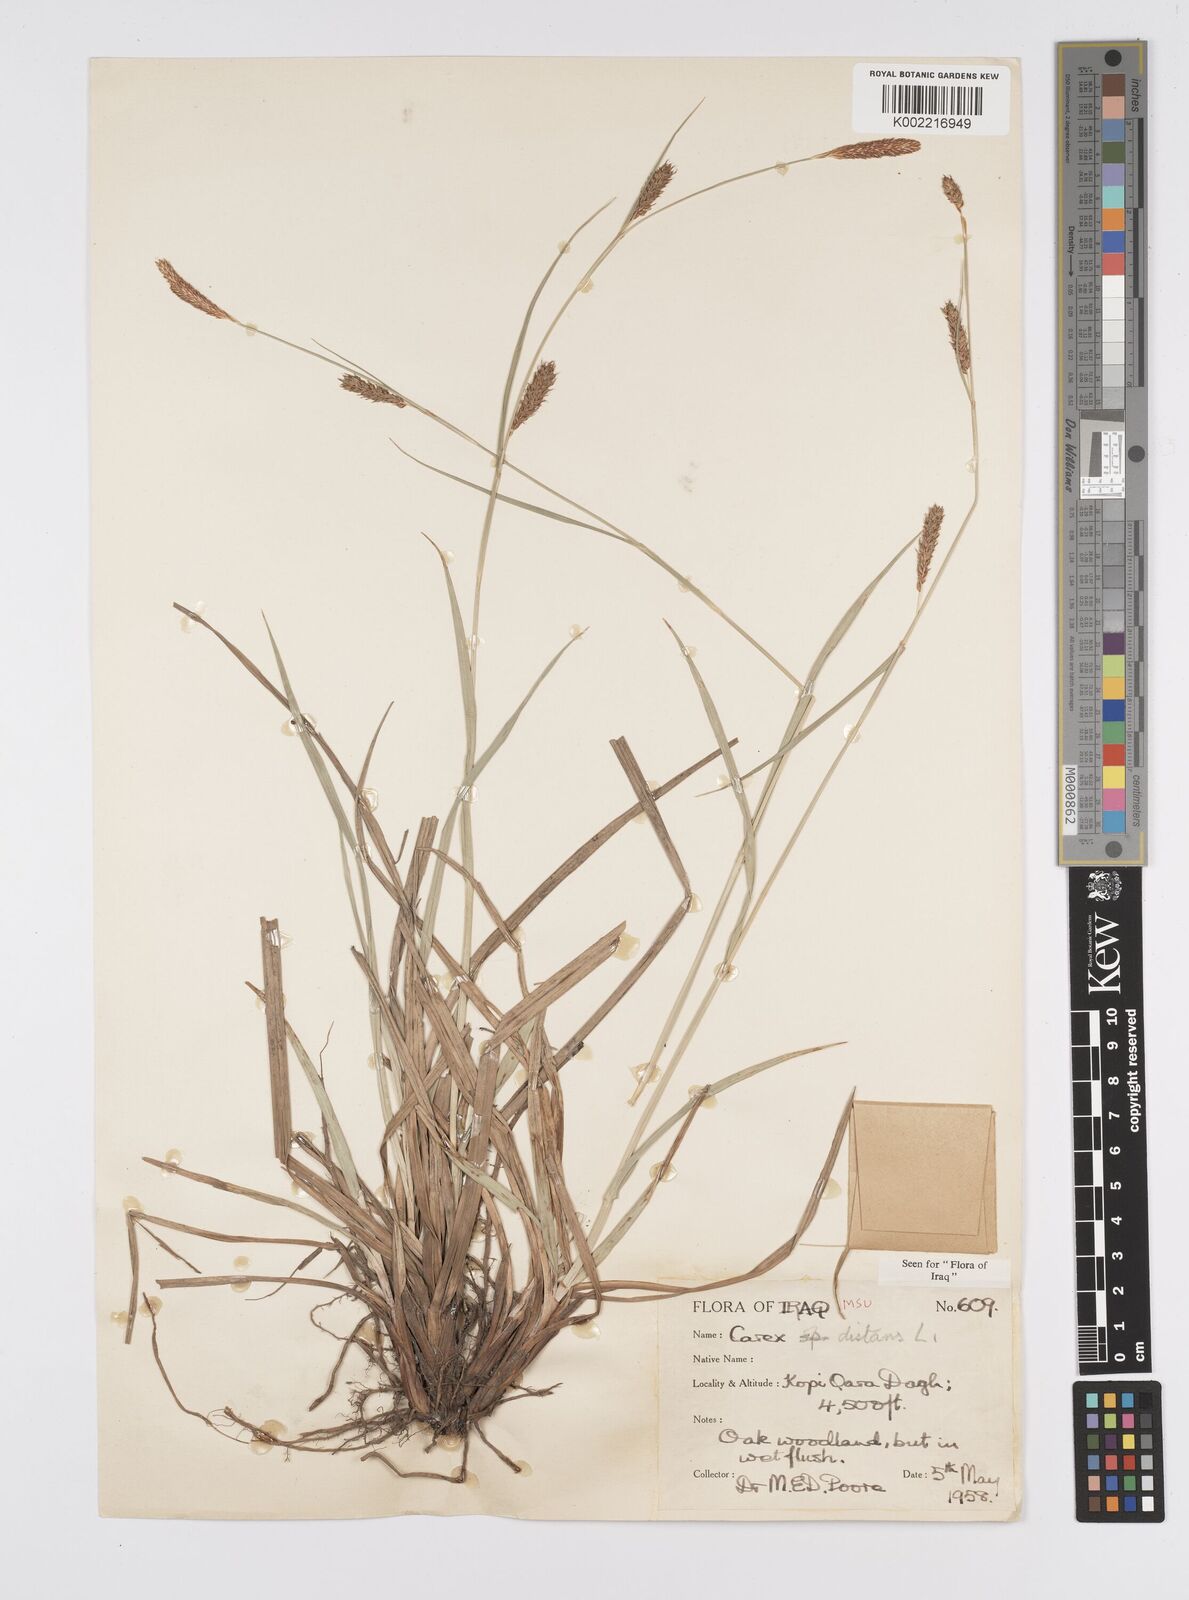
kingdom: Plantae
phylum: Tracheophyta
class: Liliopsida
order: Poales
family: Cyperaceae
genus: Carex
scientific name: Carex distans
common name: Distant sedge
